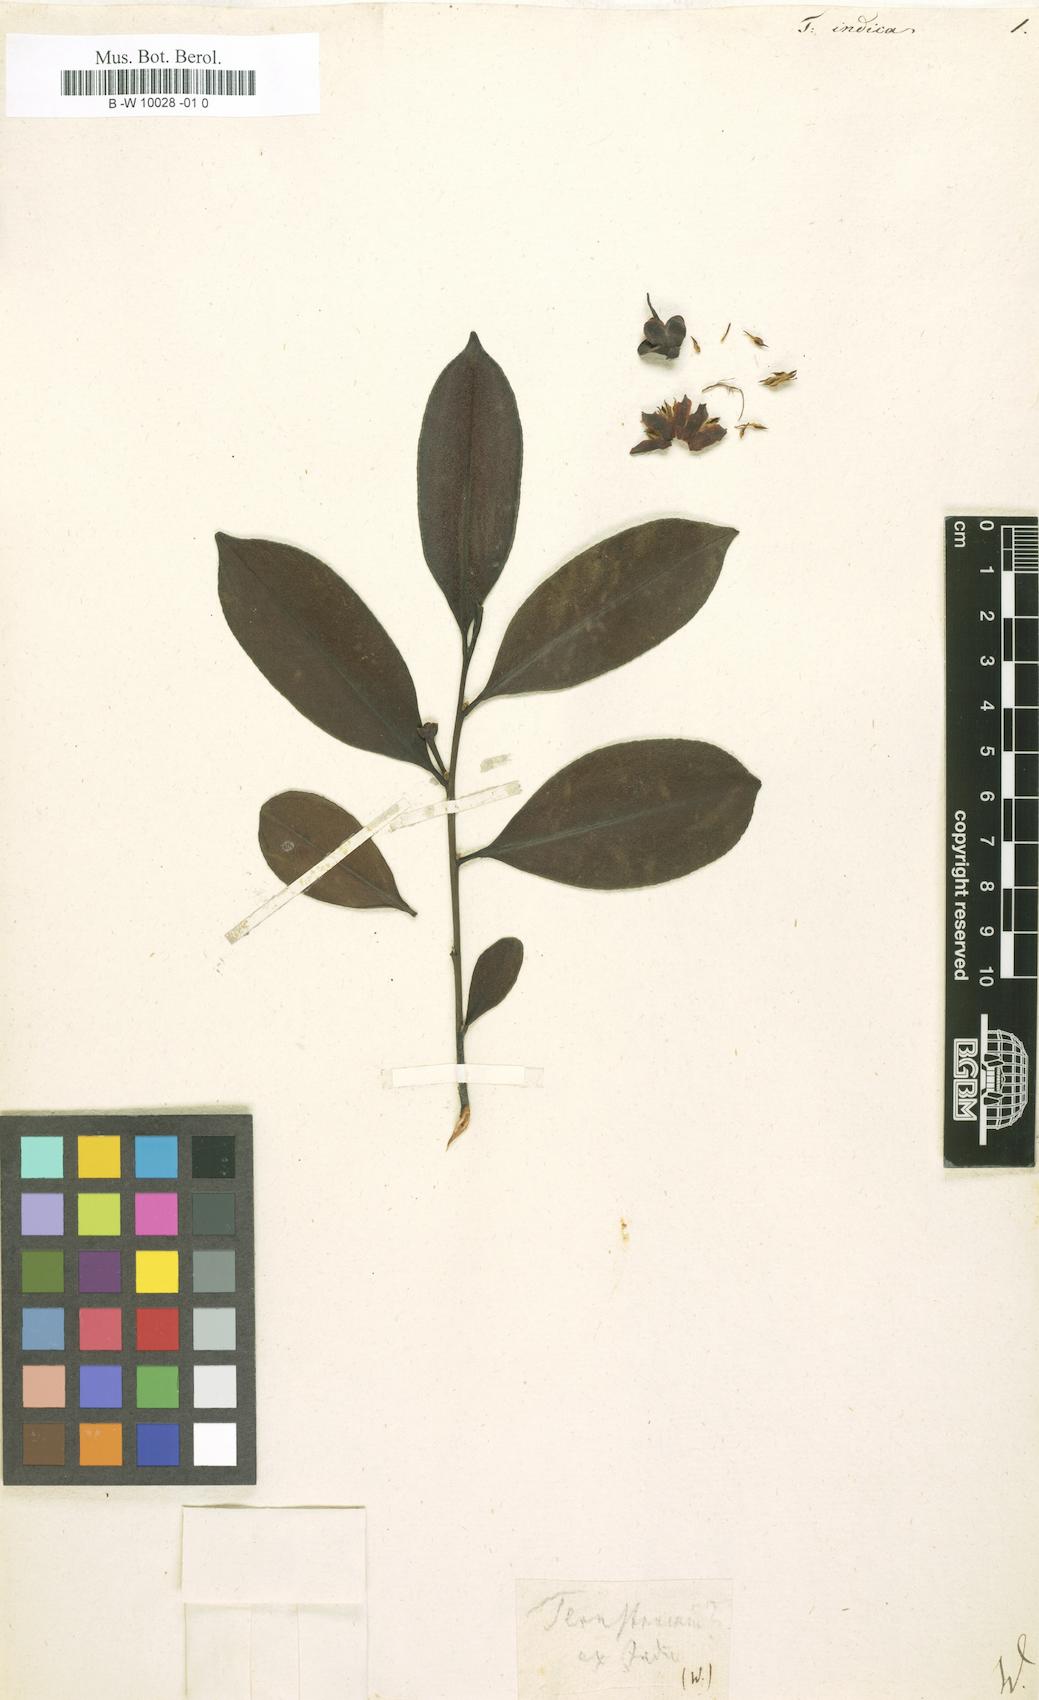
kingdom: Plantae
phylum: Tracheophyta
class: Magnoliopsida
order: Ericales
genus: Ternstroemia
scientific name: Ternstroemia
